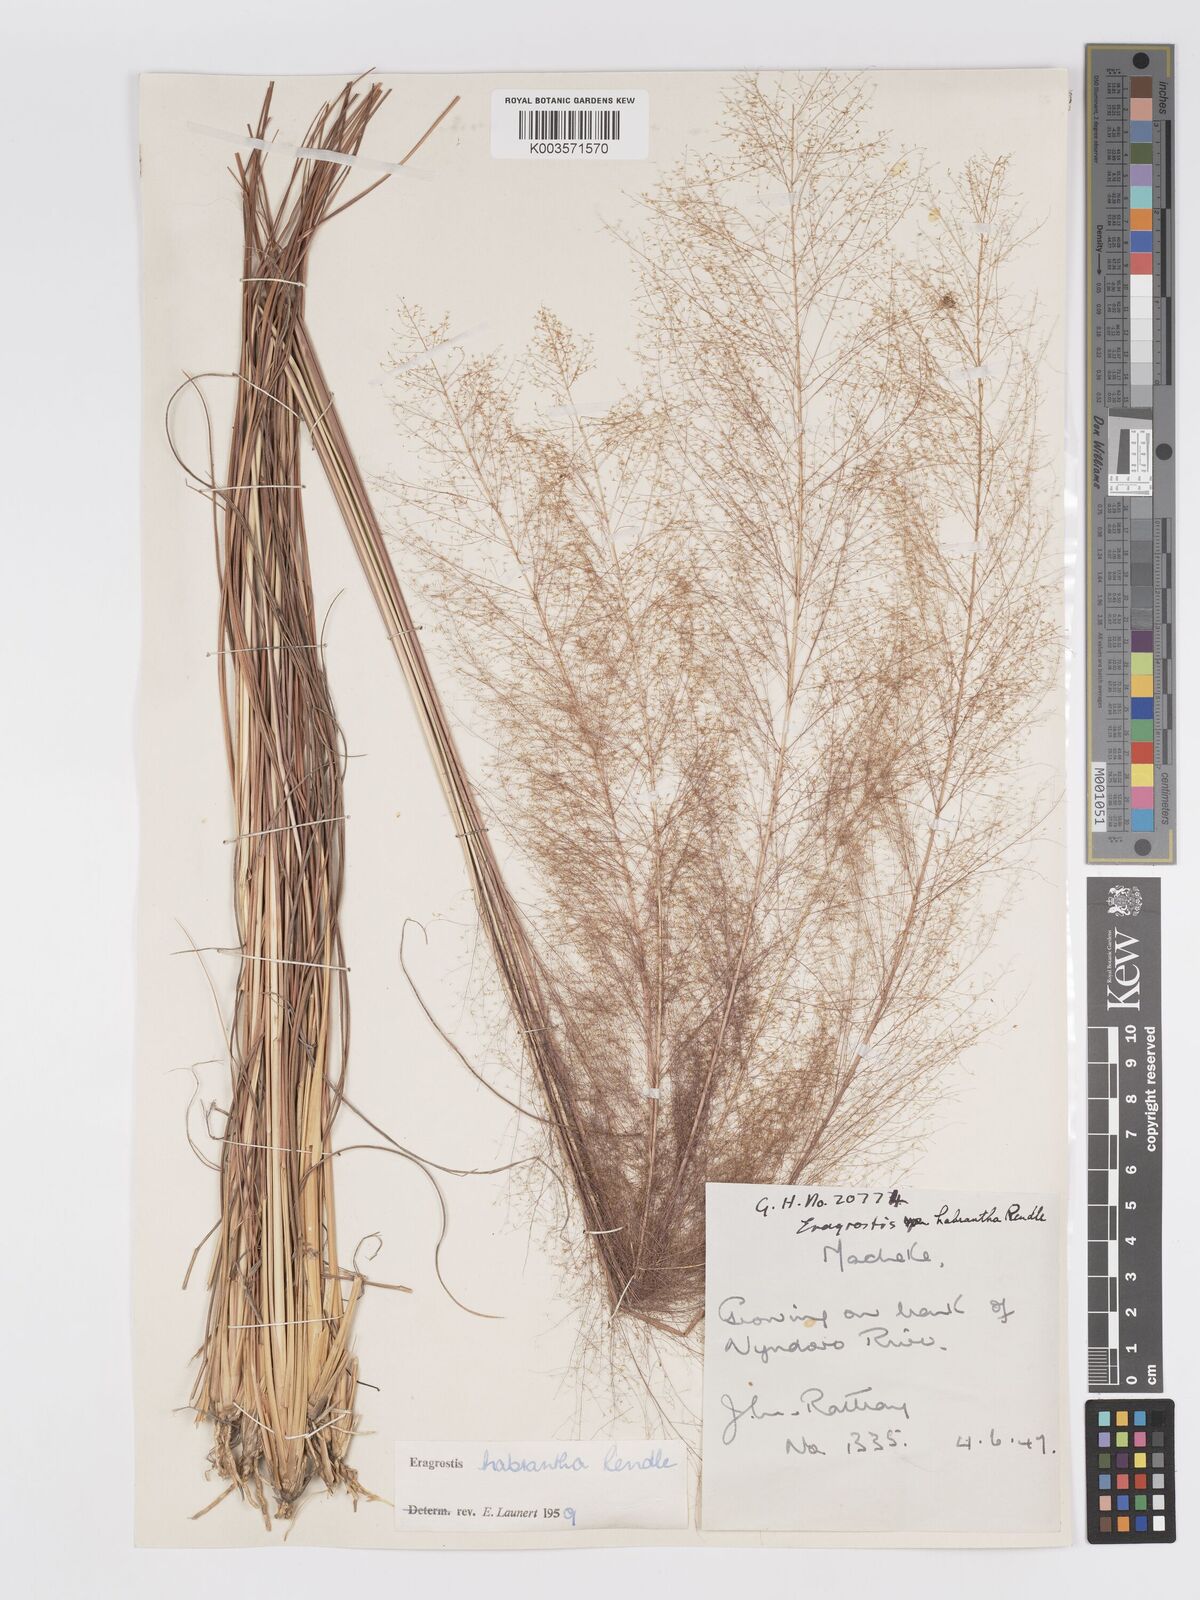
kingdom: Plantae
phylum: Tracheophyta
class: Liliopsida
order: Poales
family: Poaceae
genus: Eragrostis
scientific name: Eragrostis habrantha
